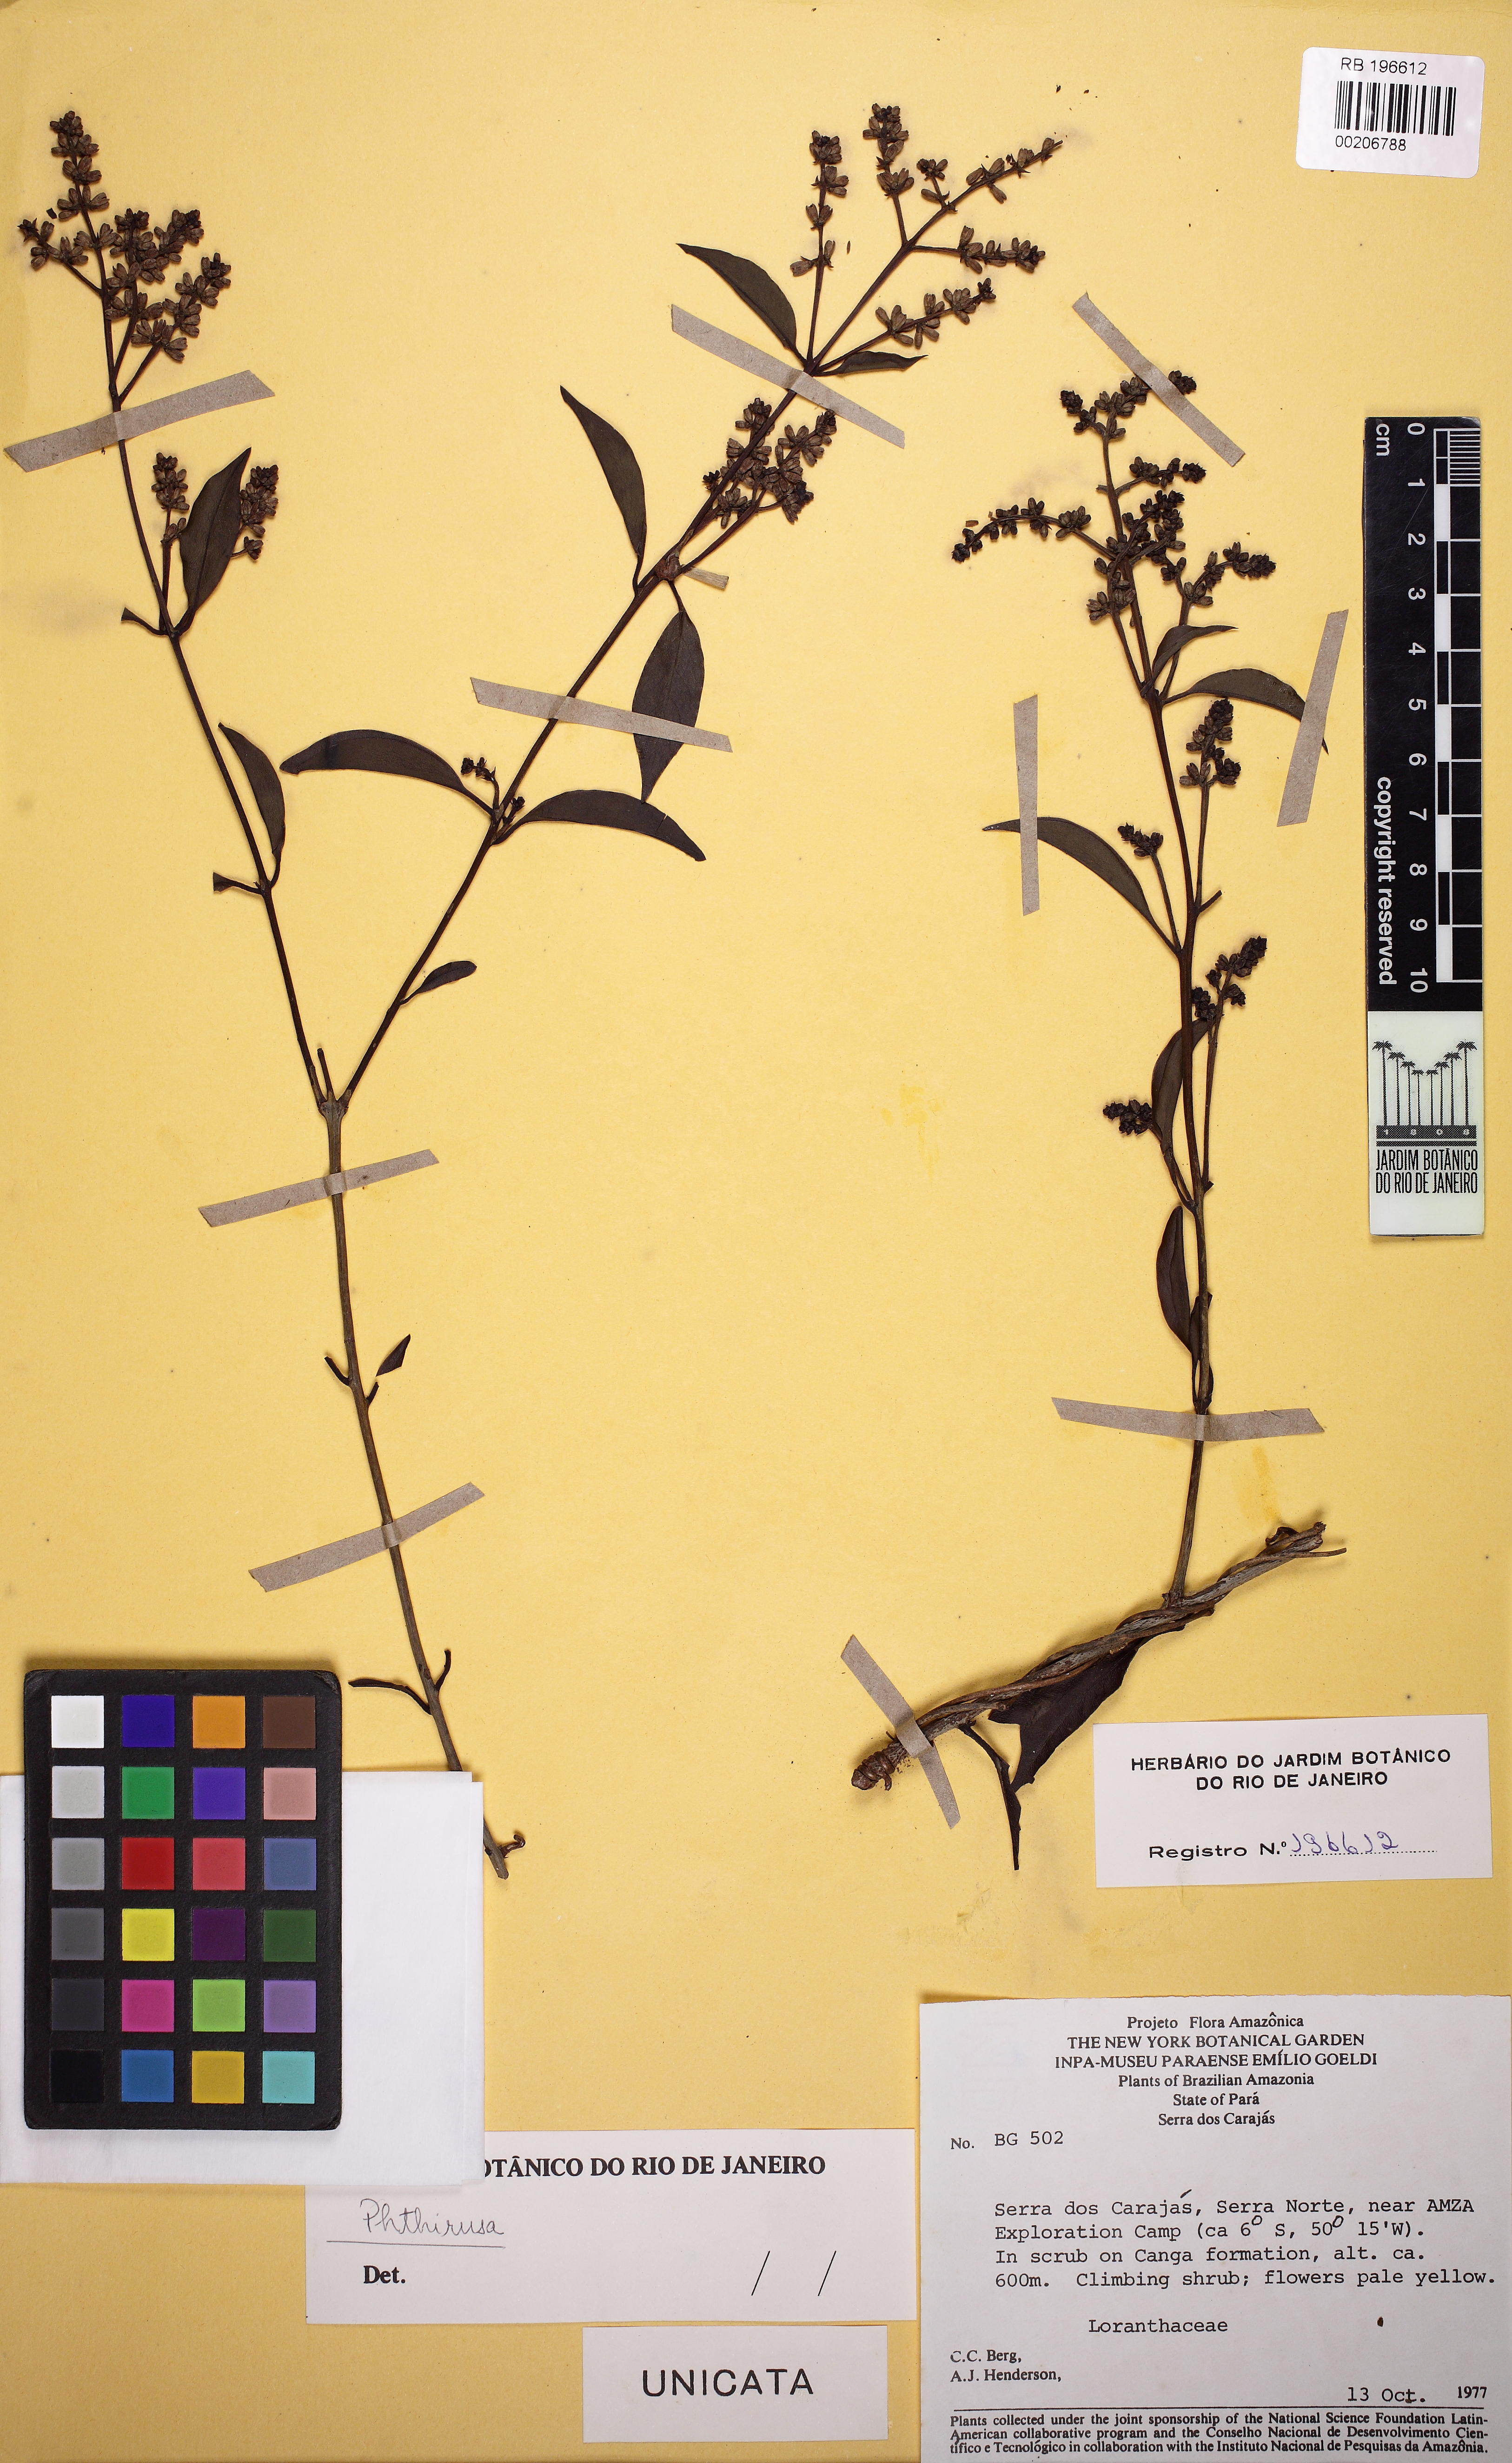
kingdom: Plantae
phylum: Tracheophyta
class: Magnoliopsida
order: Santalales
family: Loranthaceae
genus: Passovia
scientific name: Passovia pedunculata
